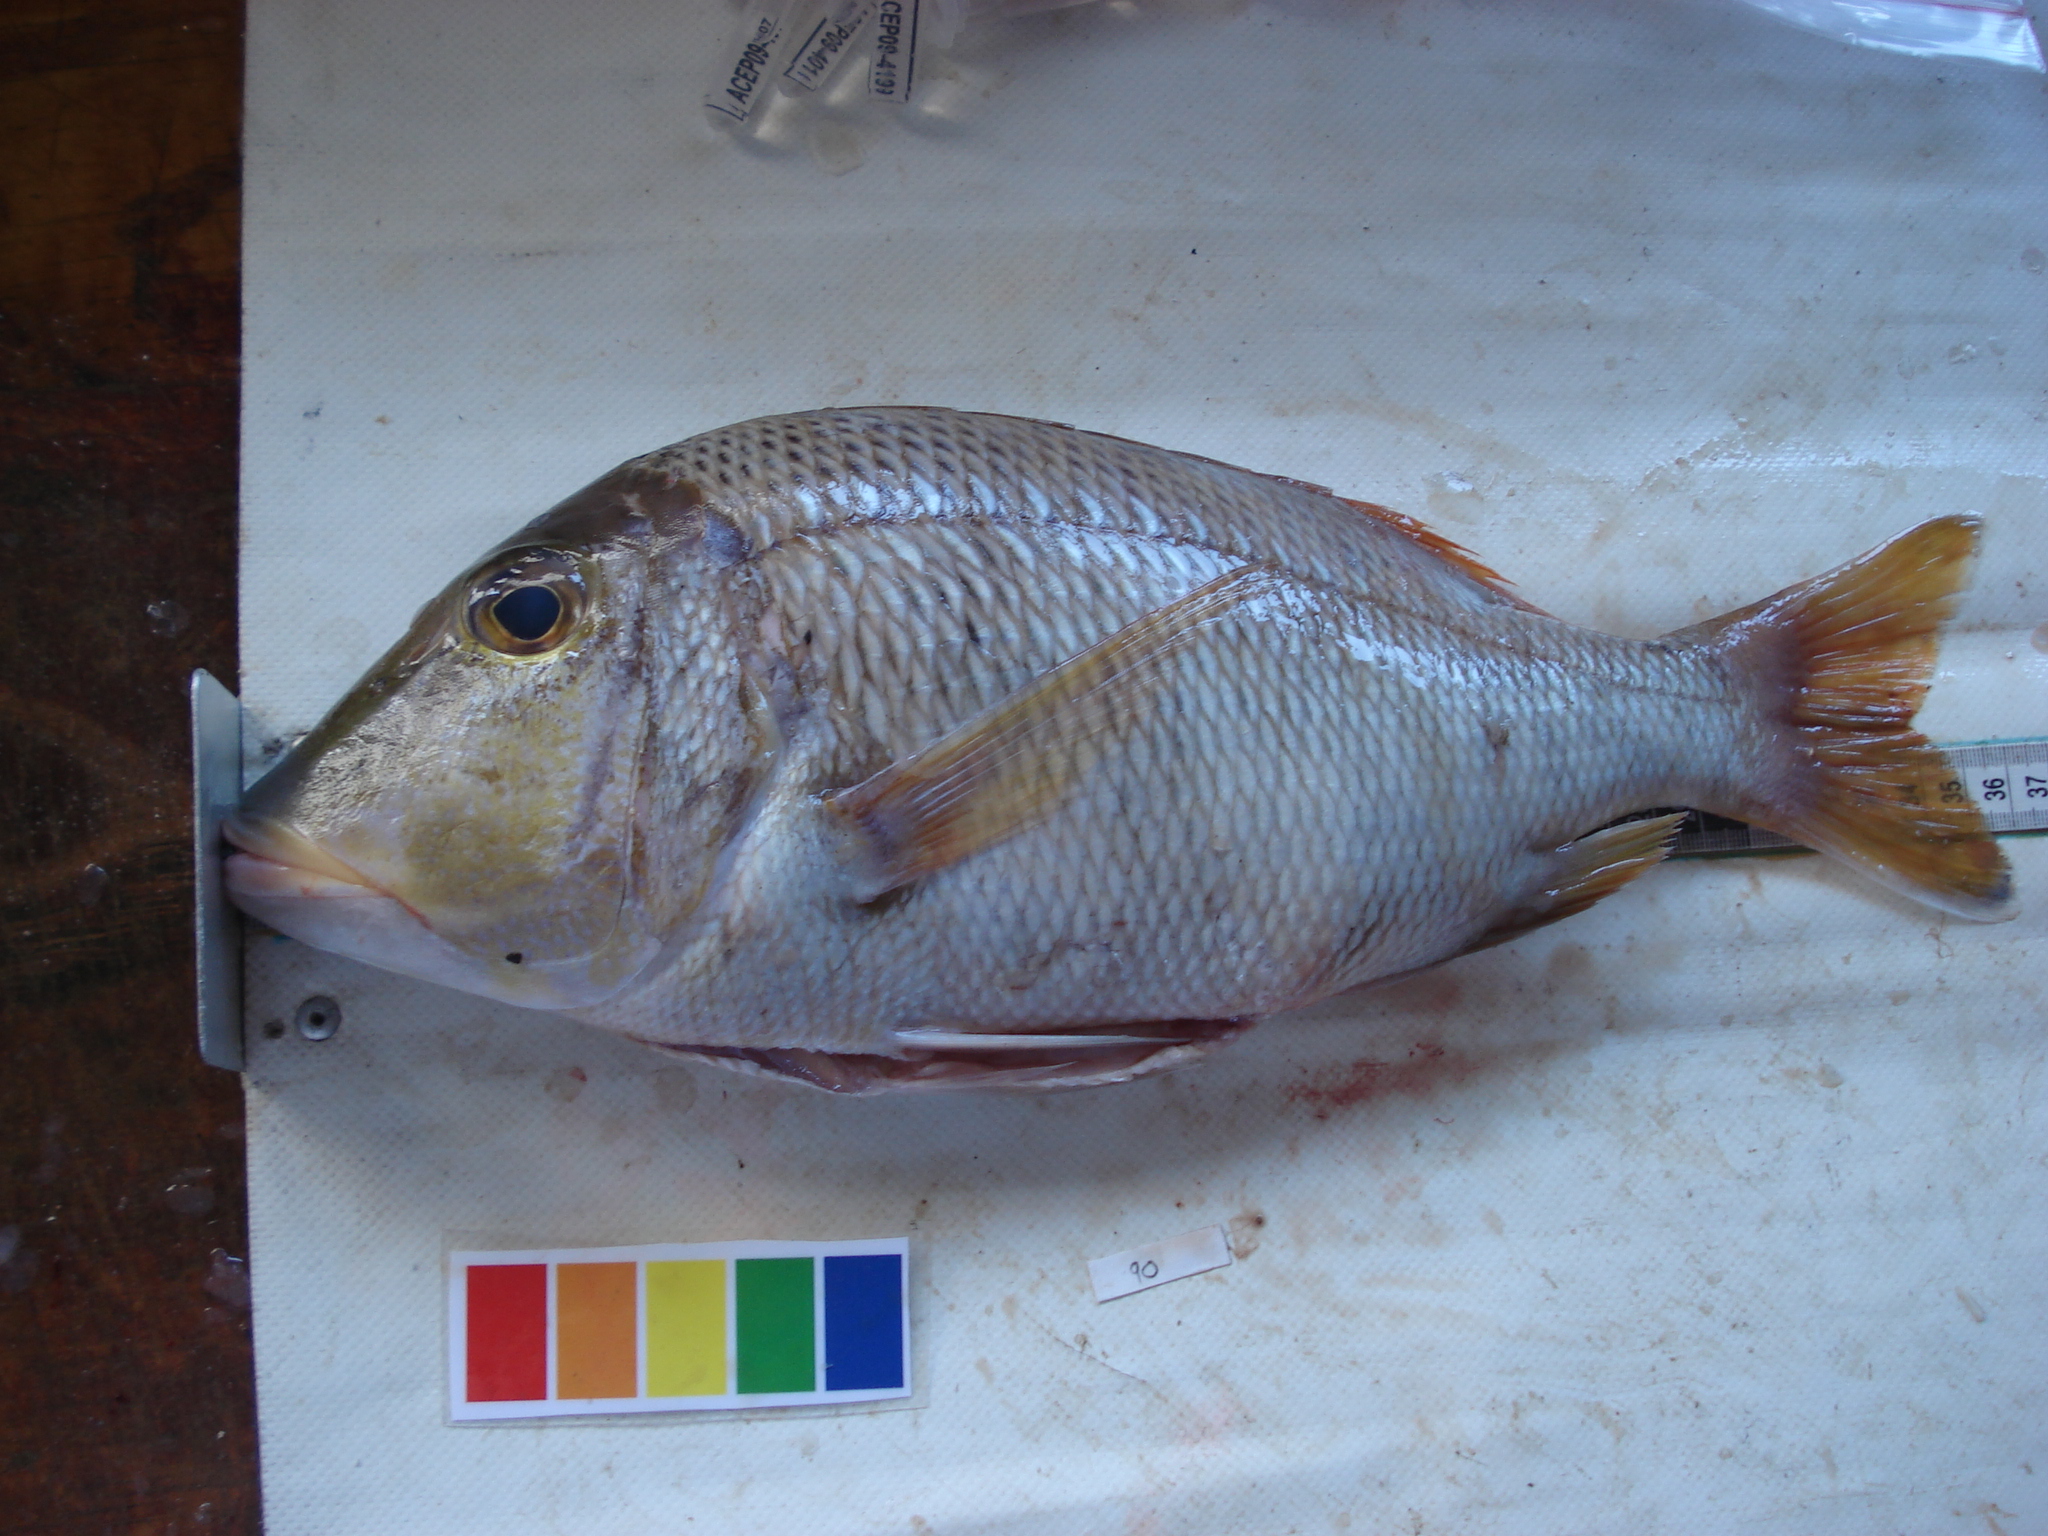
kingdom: Animalia
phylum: Chordata
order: Perciformes
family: Lethrinidae
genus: Lethrinus
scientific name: Lethrinus mahsena
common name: Sky emperor
